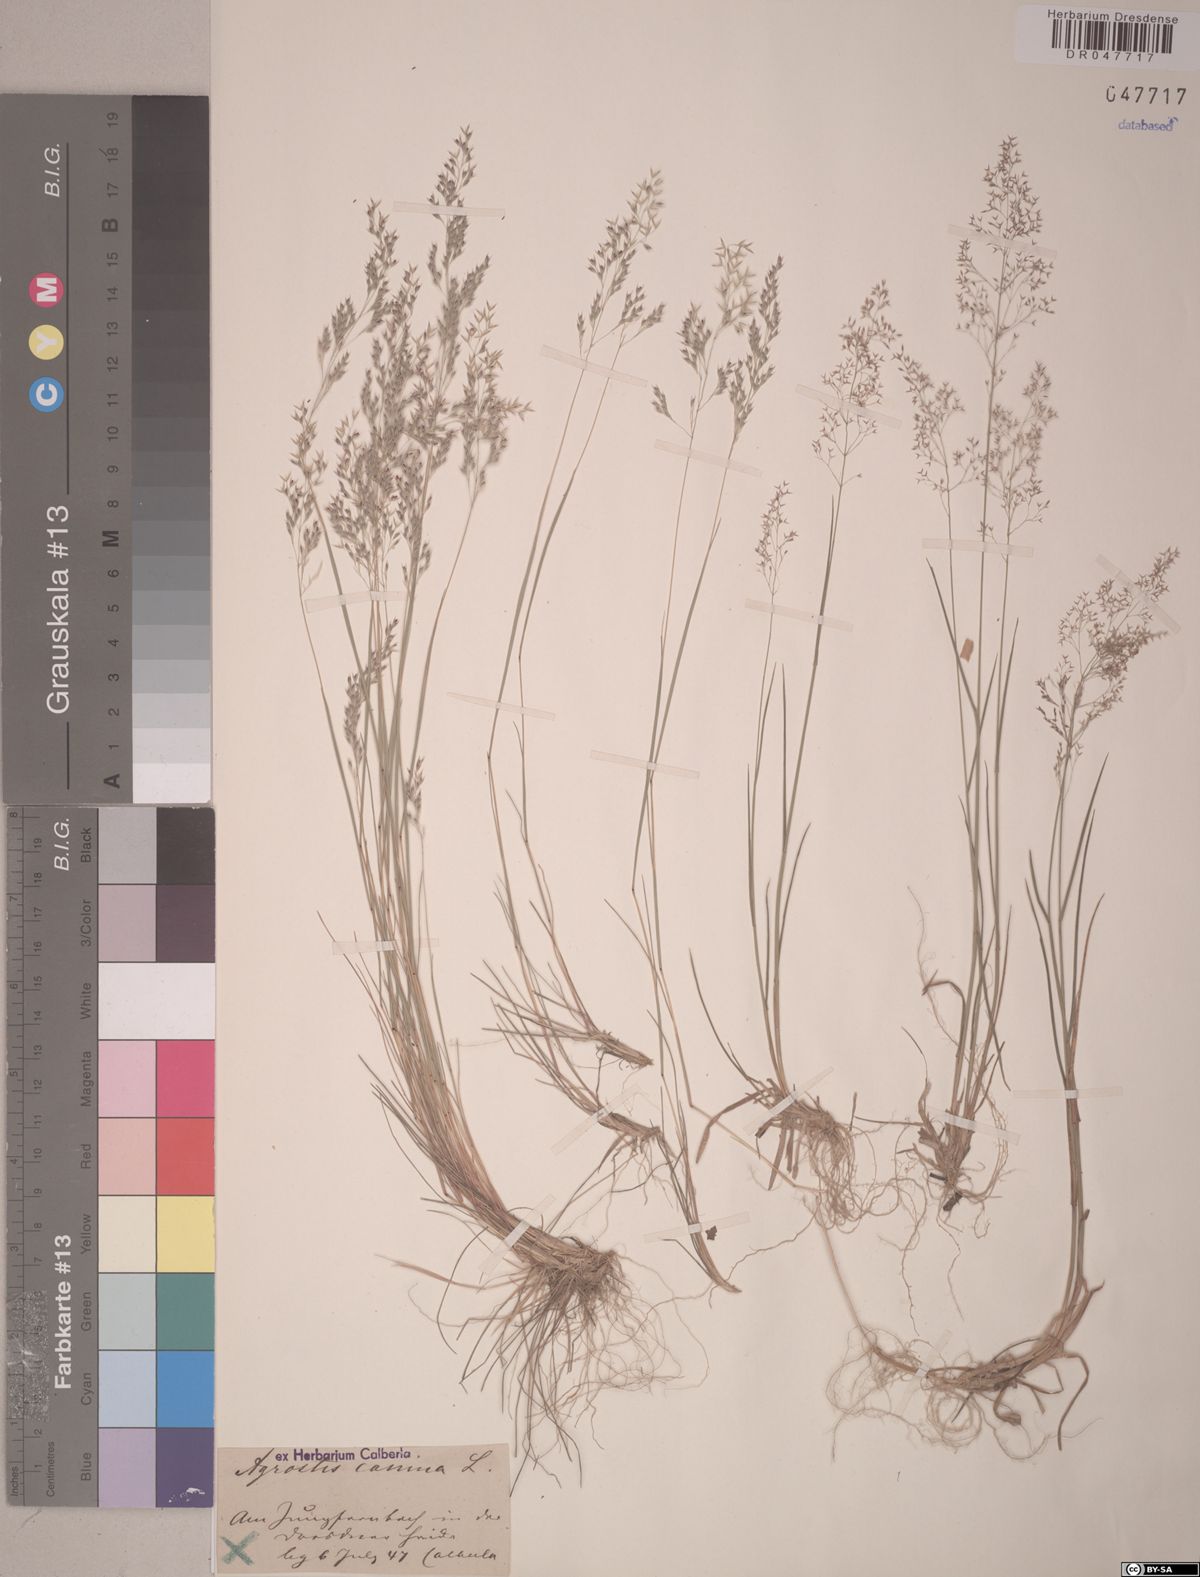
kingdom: Plantae
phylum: Tracheophyta
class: Liliopsida
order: Poales
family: Poaceae
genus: Agrostis
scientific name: Agrostis canina
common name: Velvet bent
